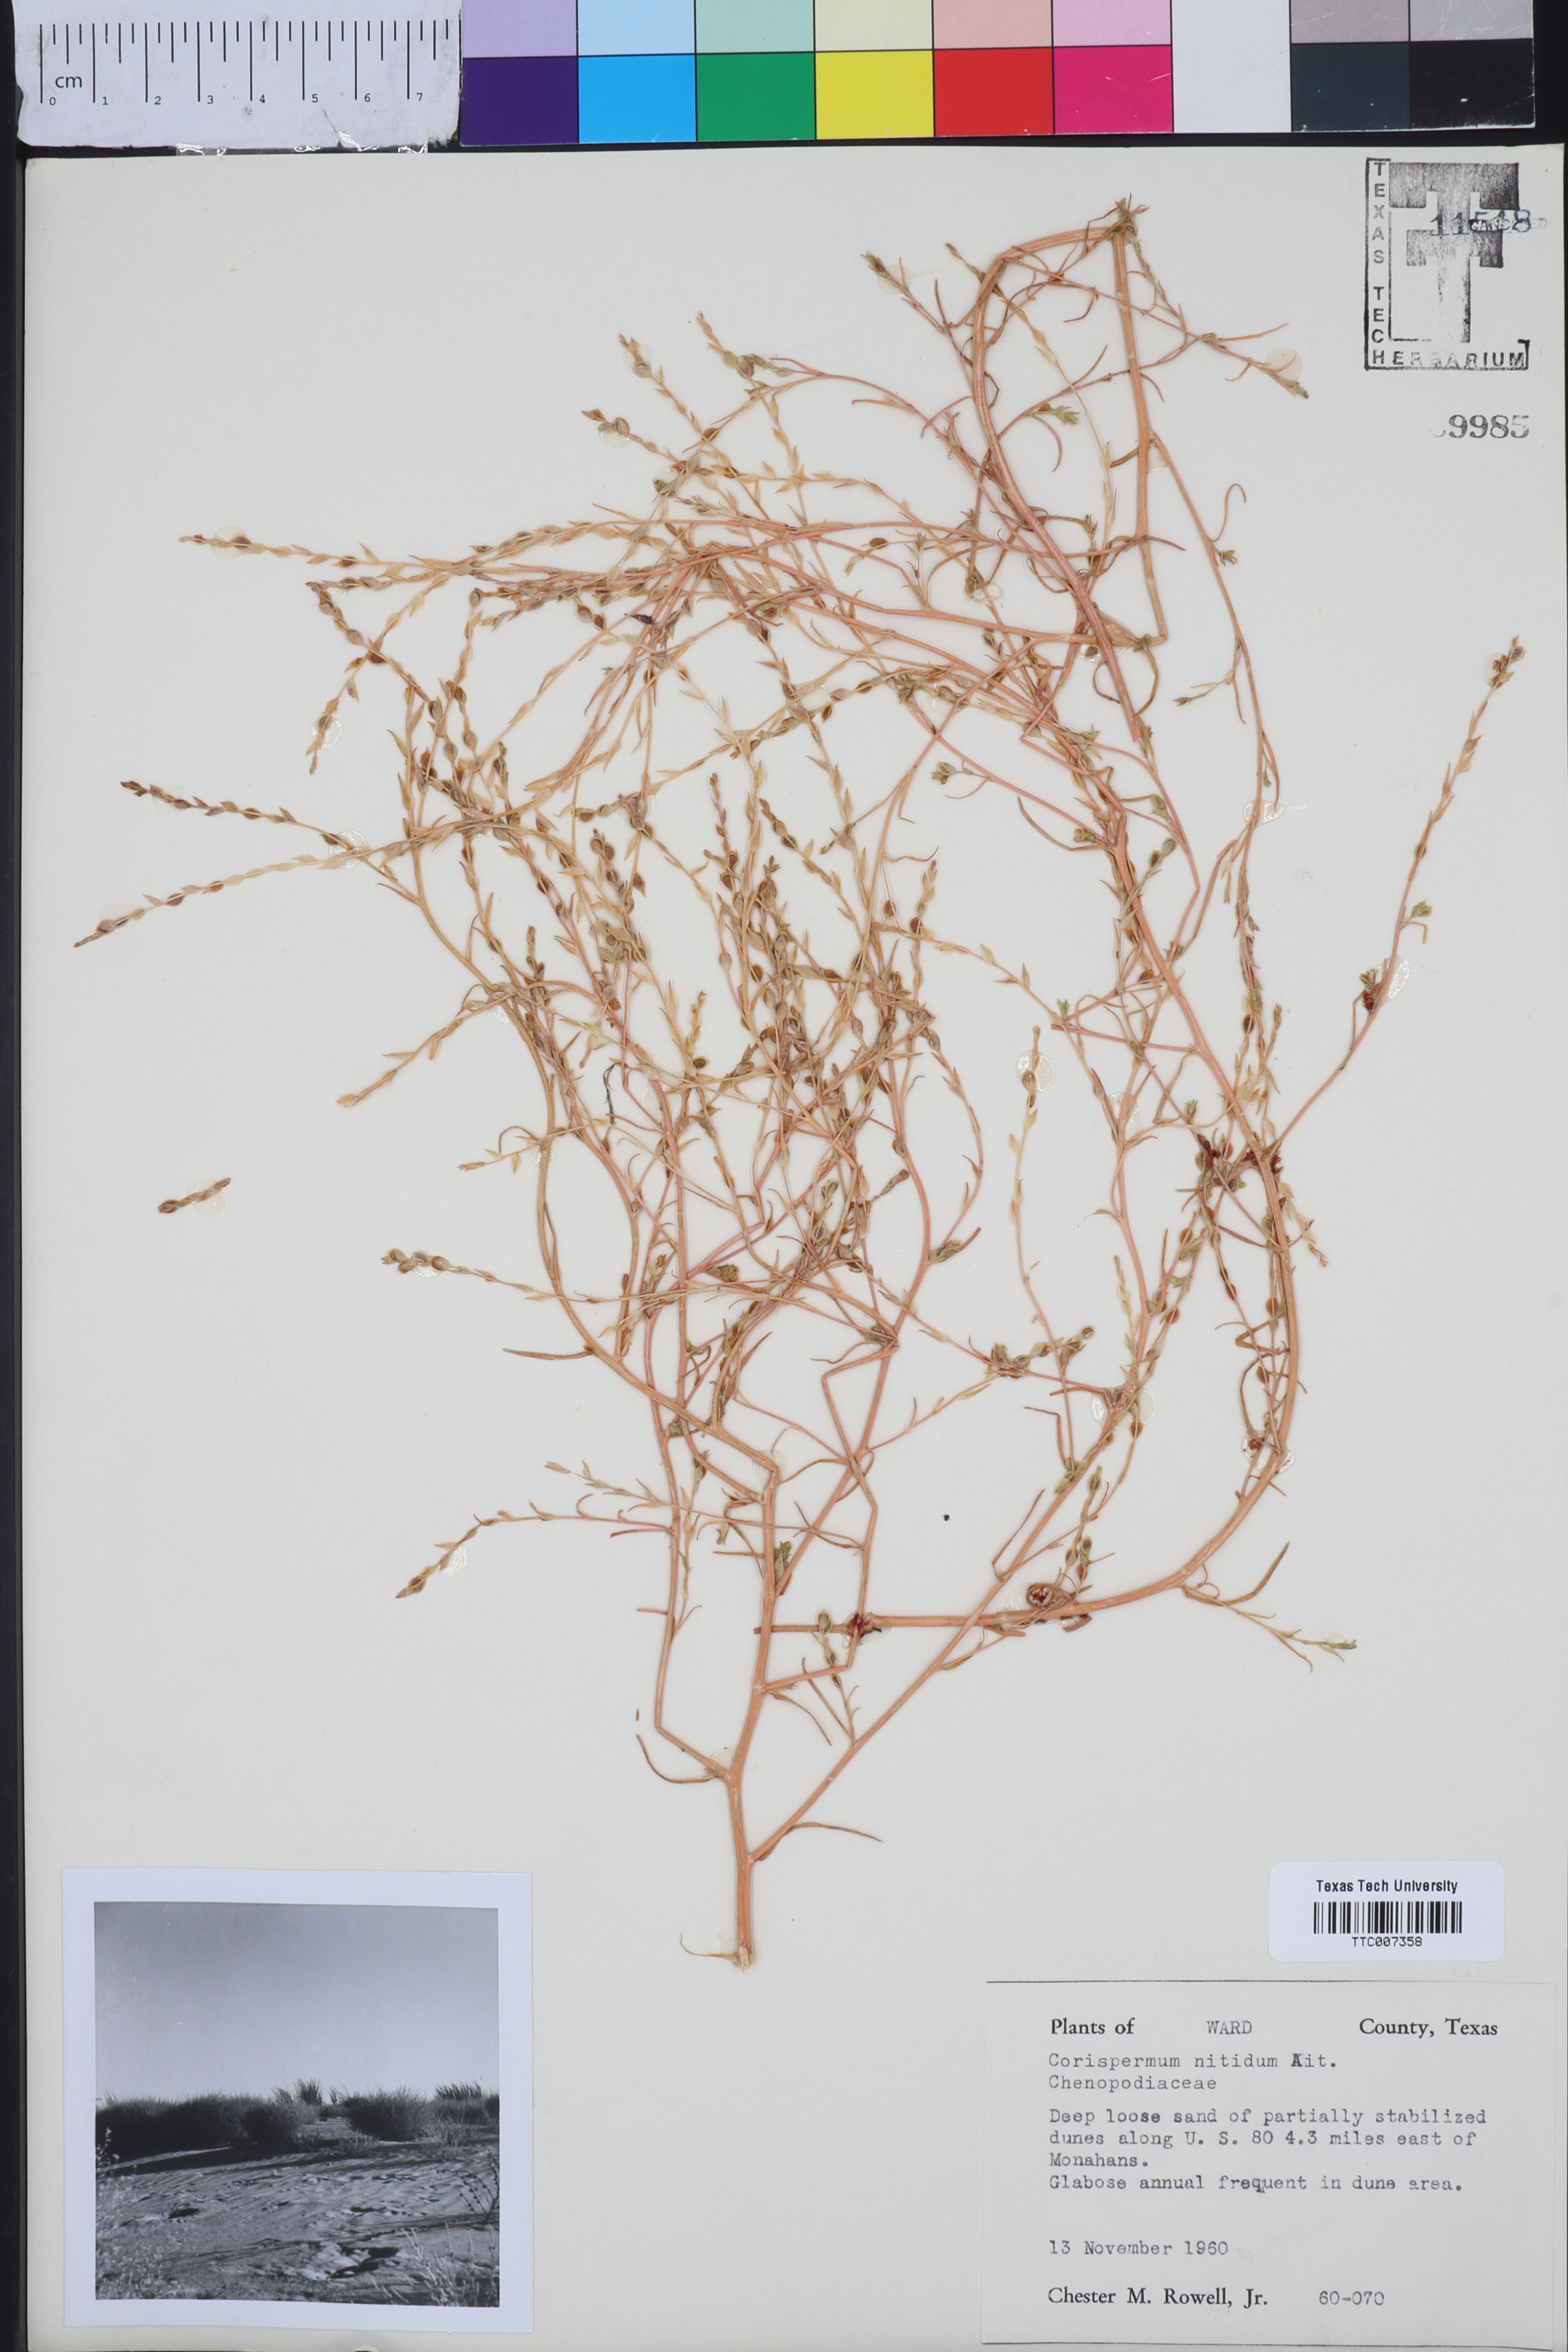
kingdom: Plantae
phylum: Tracheophyta
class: Magnoliopsida
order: Caryophyllales
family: Amaranthaceae
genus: Corispermum
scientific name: Corispermum nitidum
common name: Bugseed
